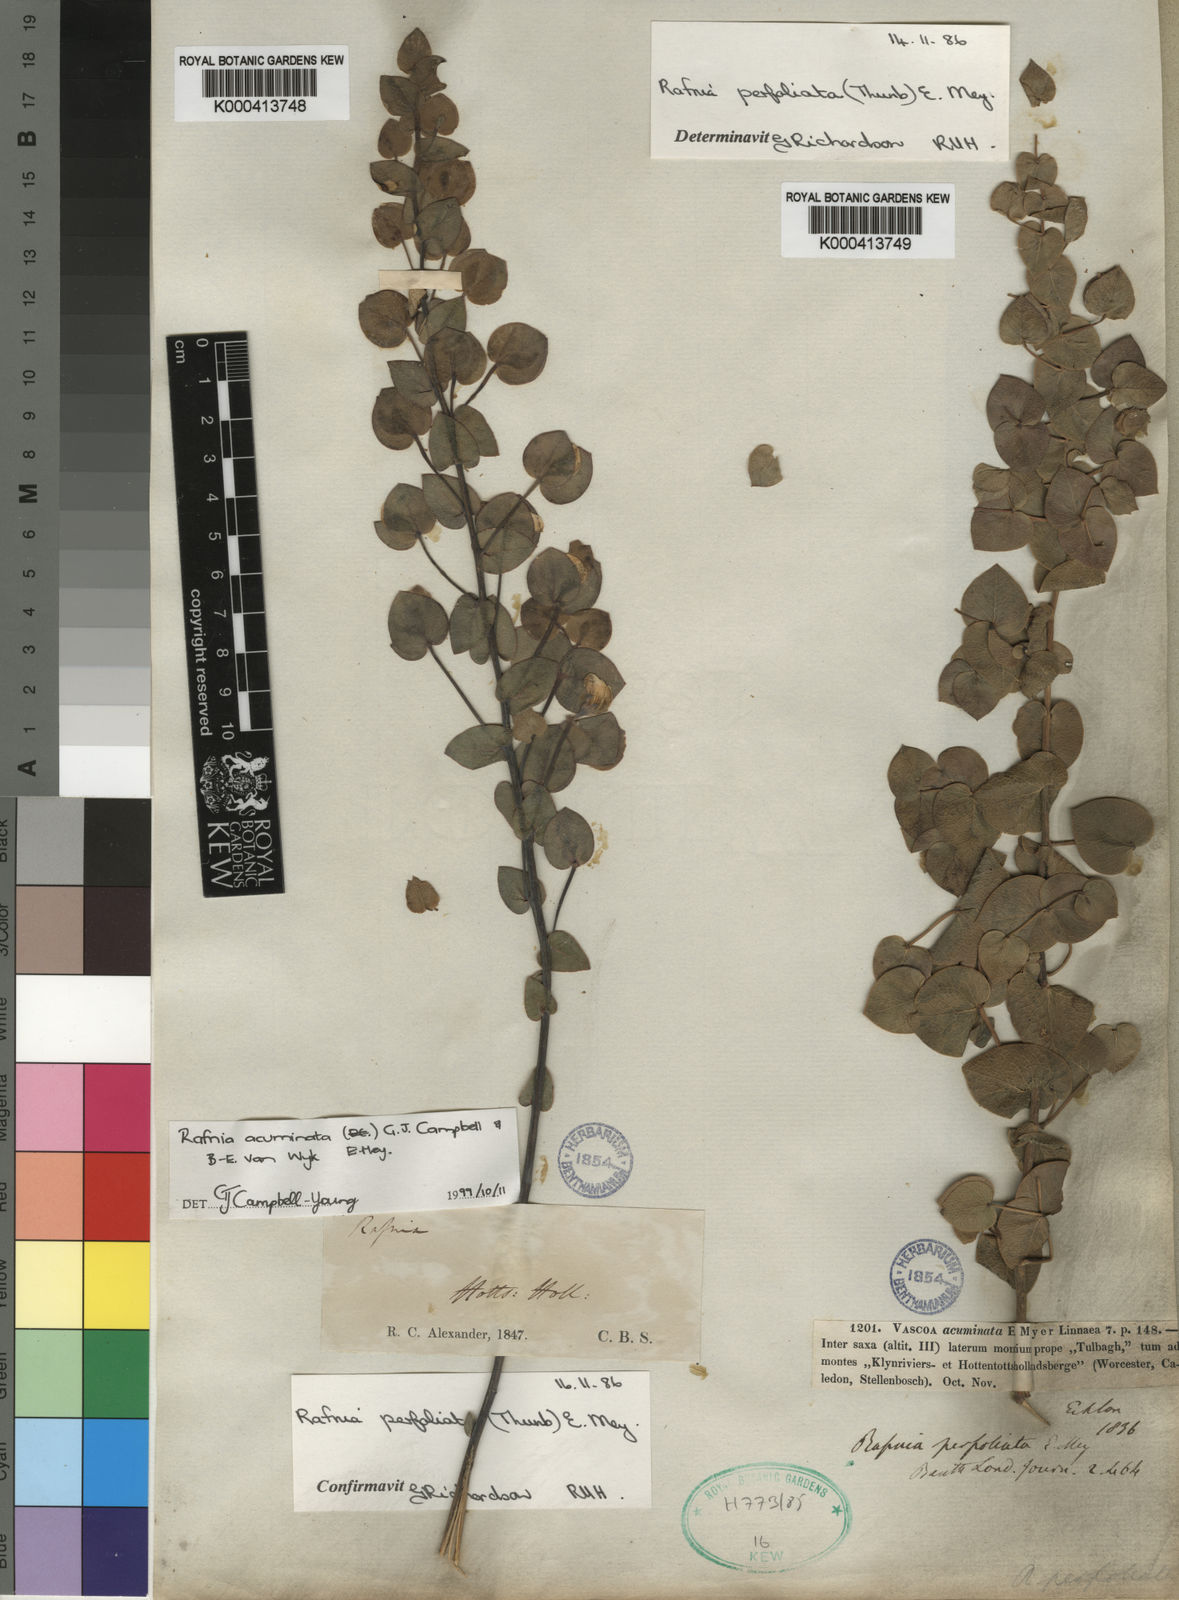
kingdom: Plantae
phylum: Tracheophyta
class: Magnoliopsida
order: Fabales
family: Fabaceae
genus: Rafnia
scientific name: Rafnia acuminata
